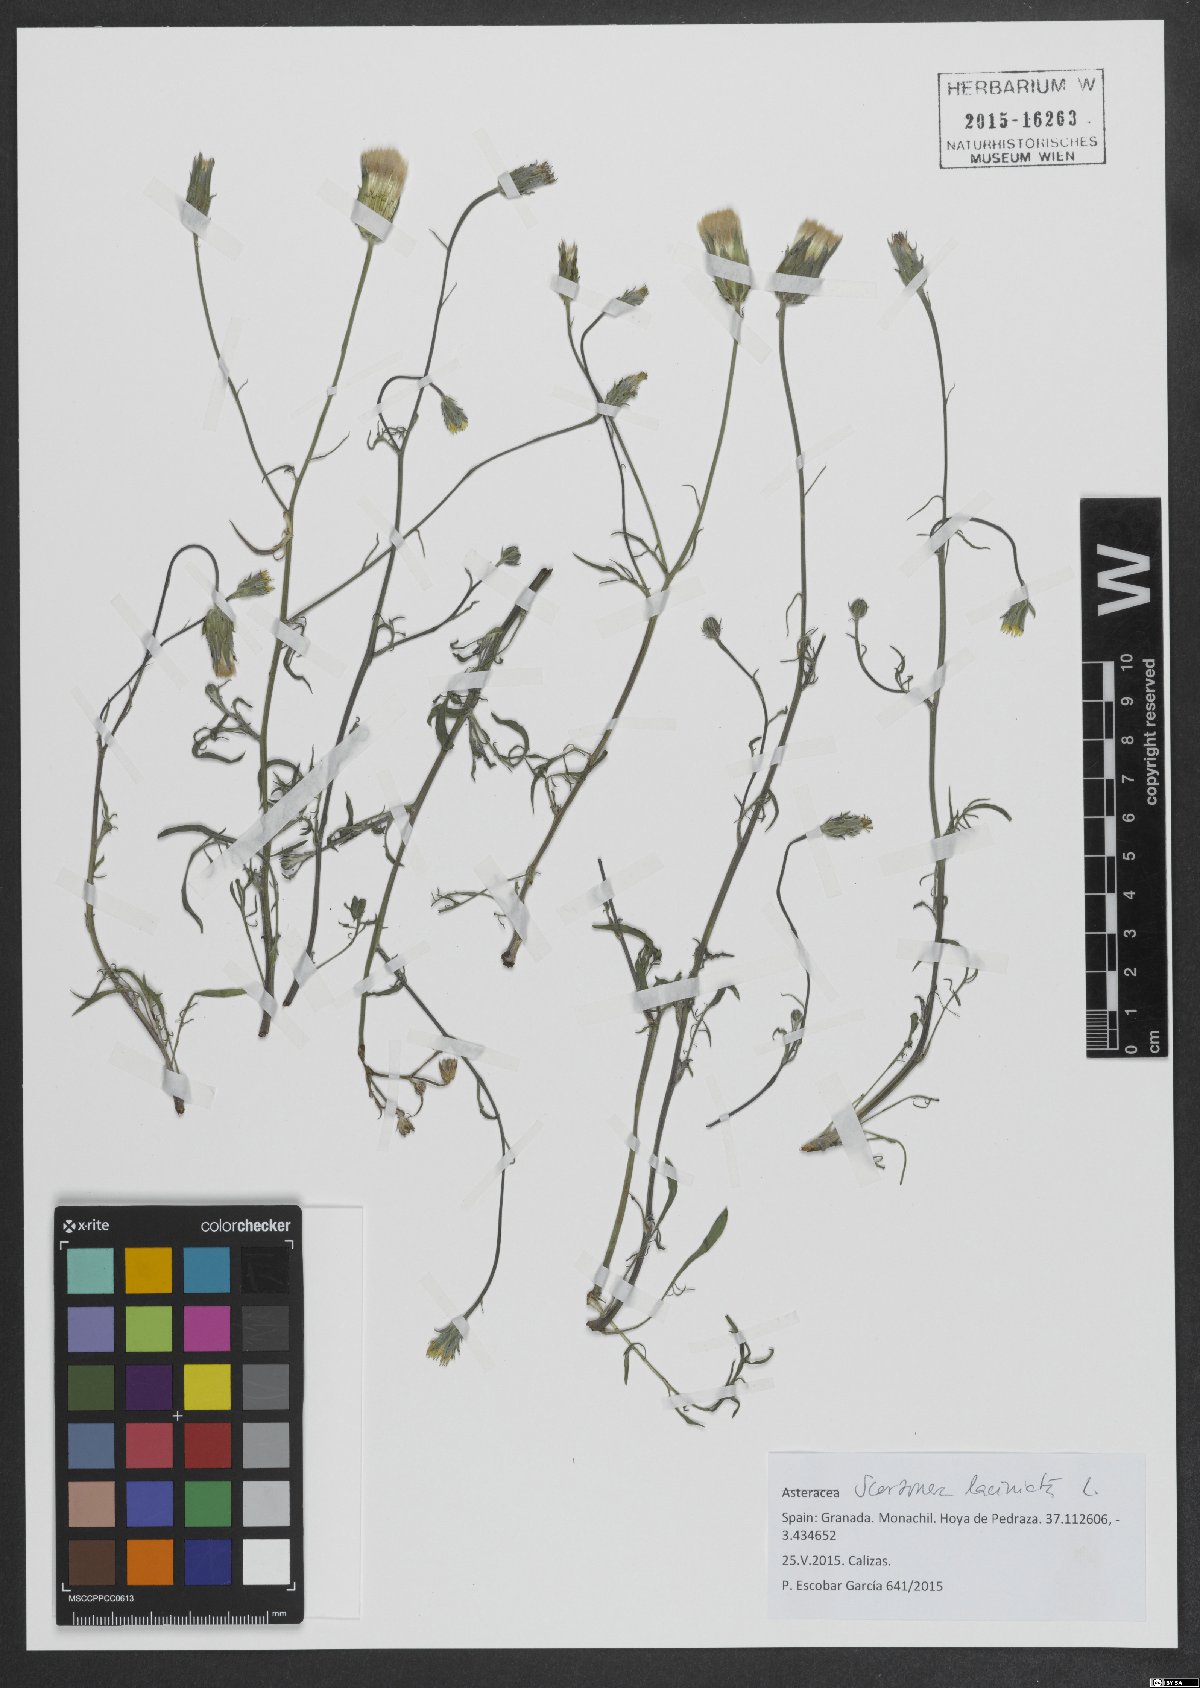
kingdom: Plantae
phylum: Tracheophyta
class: Magnoliopsida
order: Asterales
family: Asteraceae
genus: Scorzonera
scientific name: Scorzonera laciniata
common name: Cutleaf vipergrass
